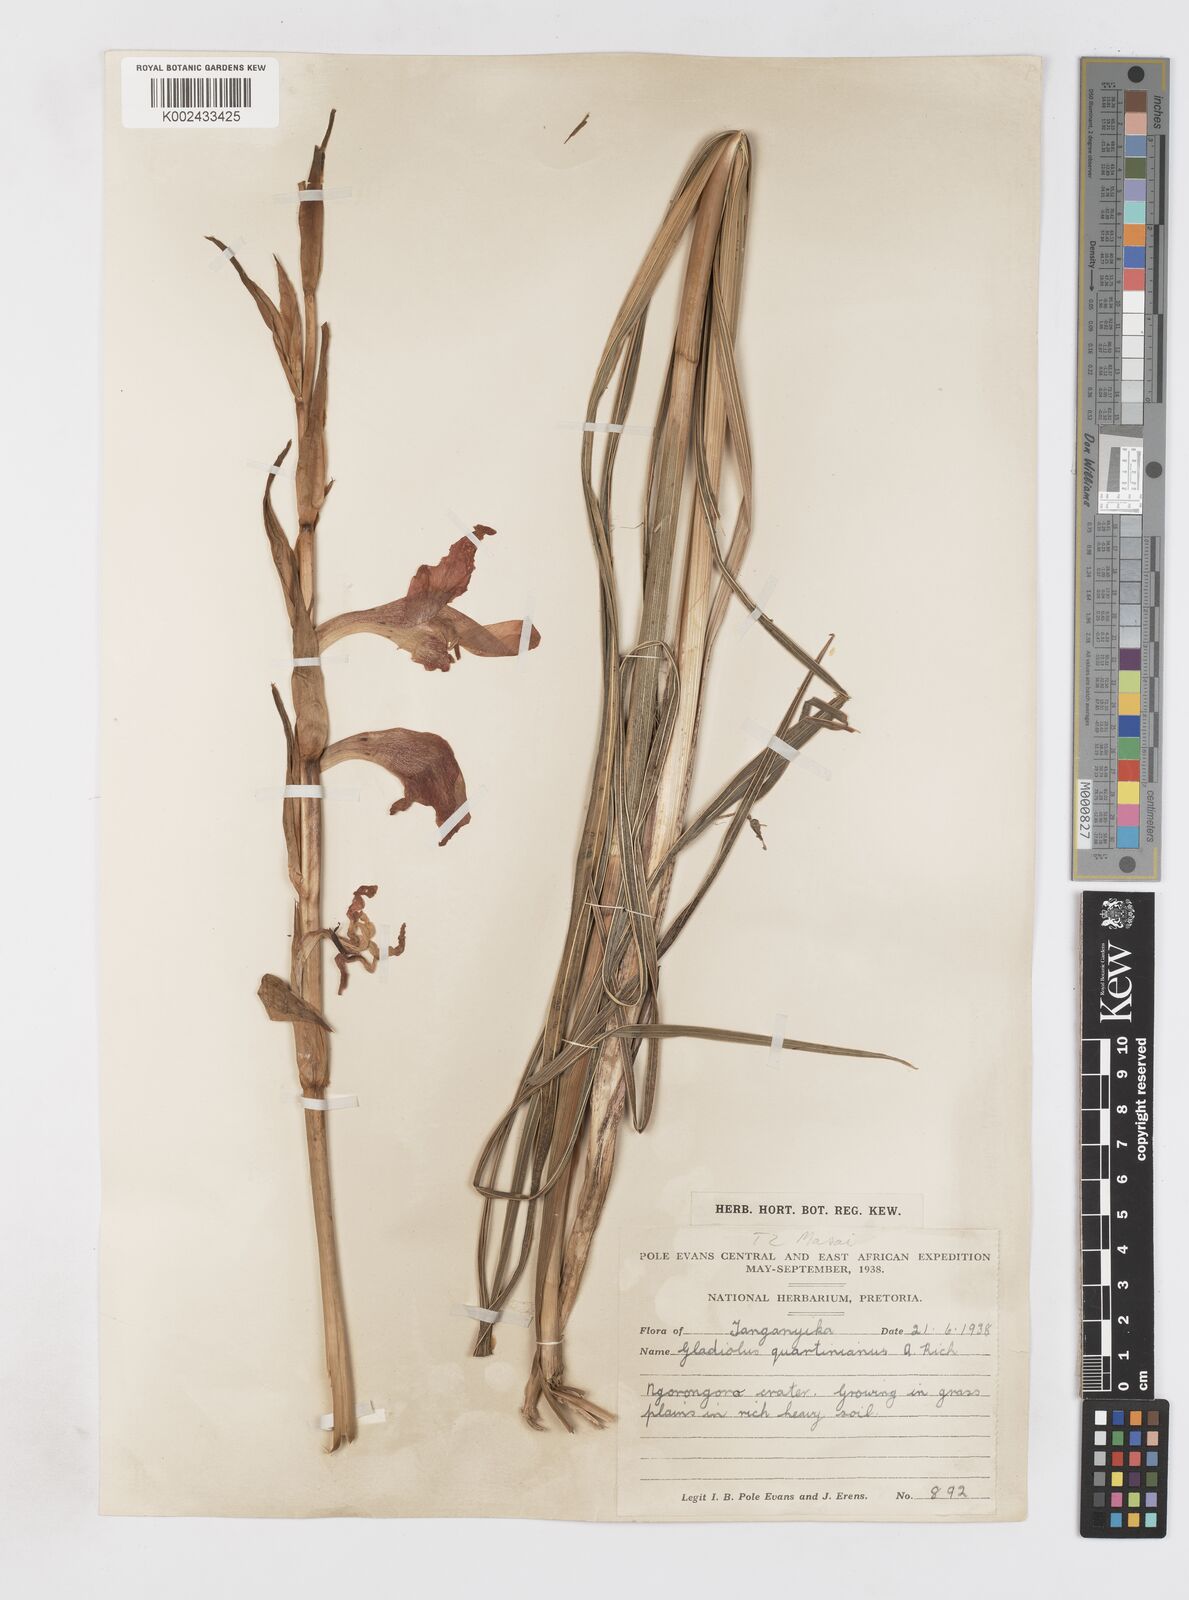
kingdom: Plantae
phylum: Tracheophyta
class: Liliopsida
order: Asparagales
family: Iridaceae
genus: Gladiolus
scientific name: Gladiolus dalenii
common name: Cornflag
